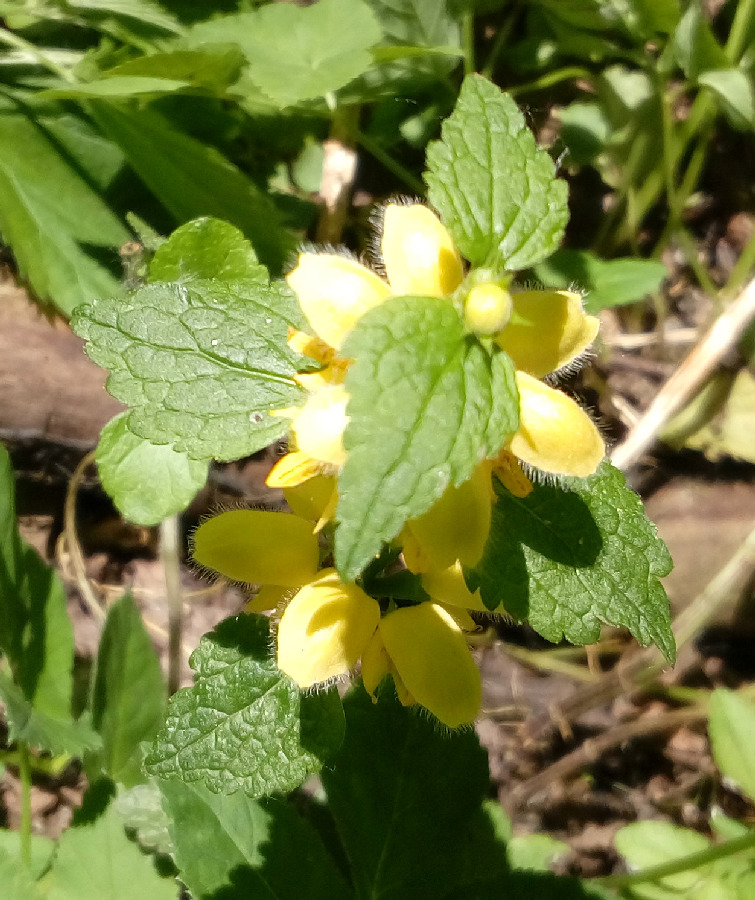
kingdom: Plantae
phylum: Tracheophyta
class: Magnoliopsida
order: Lamiales
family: Lamiaceae
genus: Lamium
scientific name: Lamium galeobdolon
